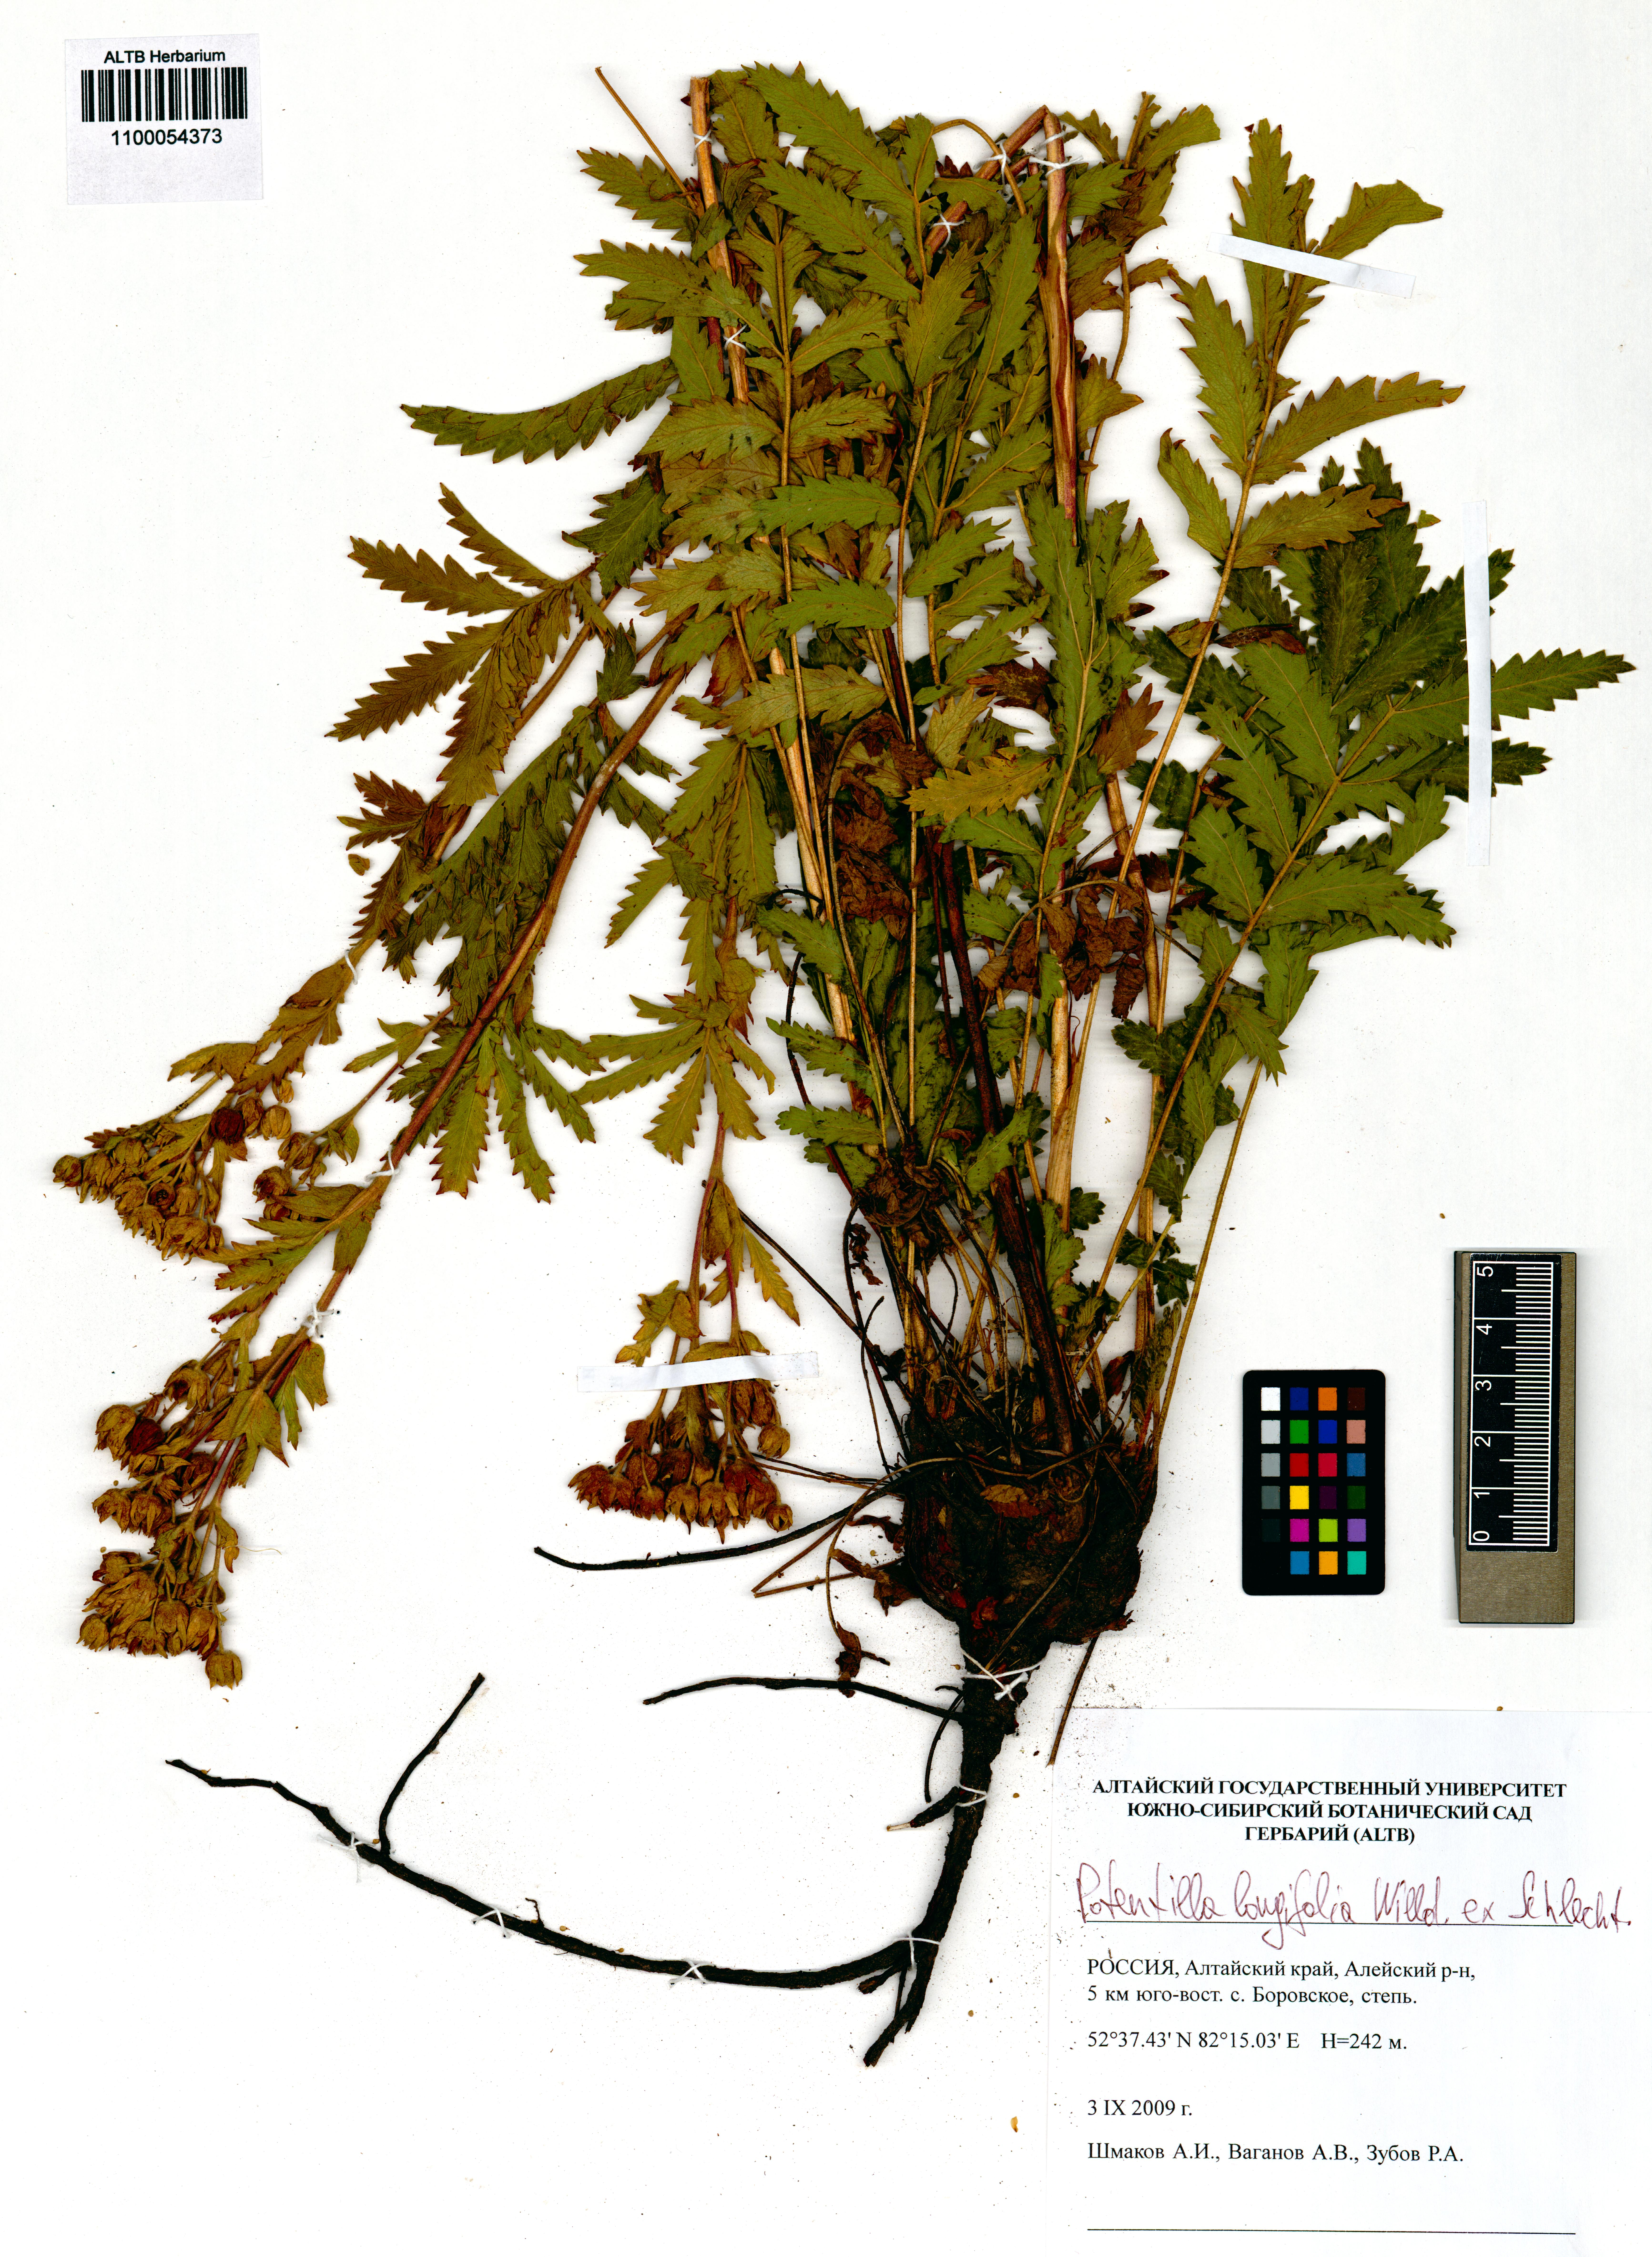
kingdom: Plantae
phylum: Tracheophyta
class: Magnoliopsida
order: Rosales
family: Rosaceae
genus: Potentilla
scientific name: Potentilla longifolia
